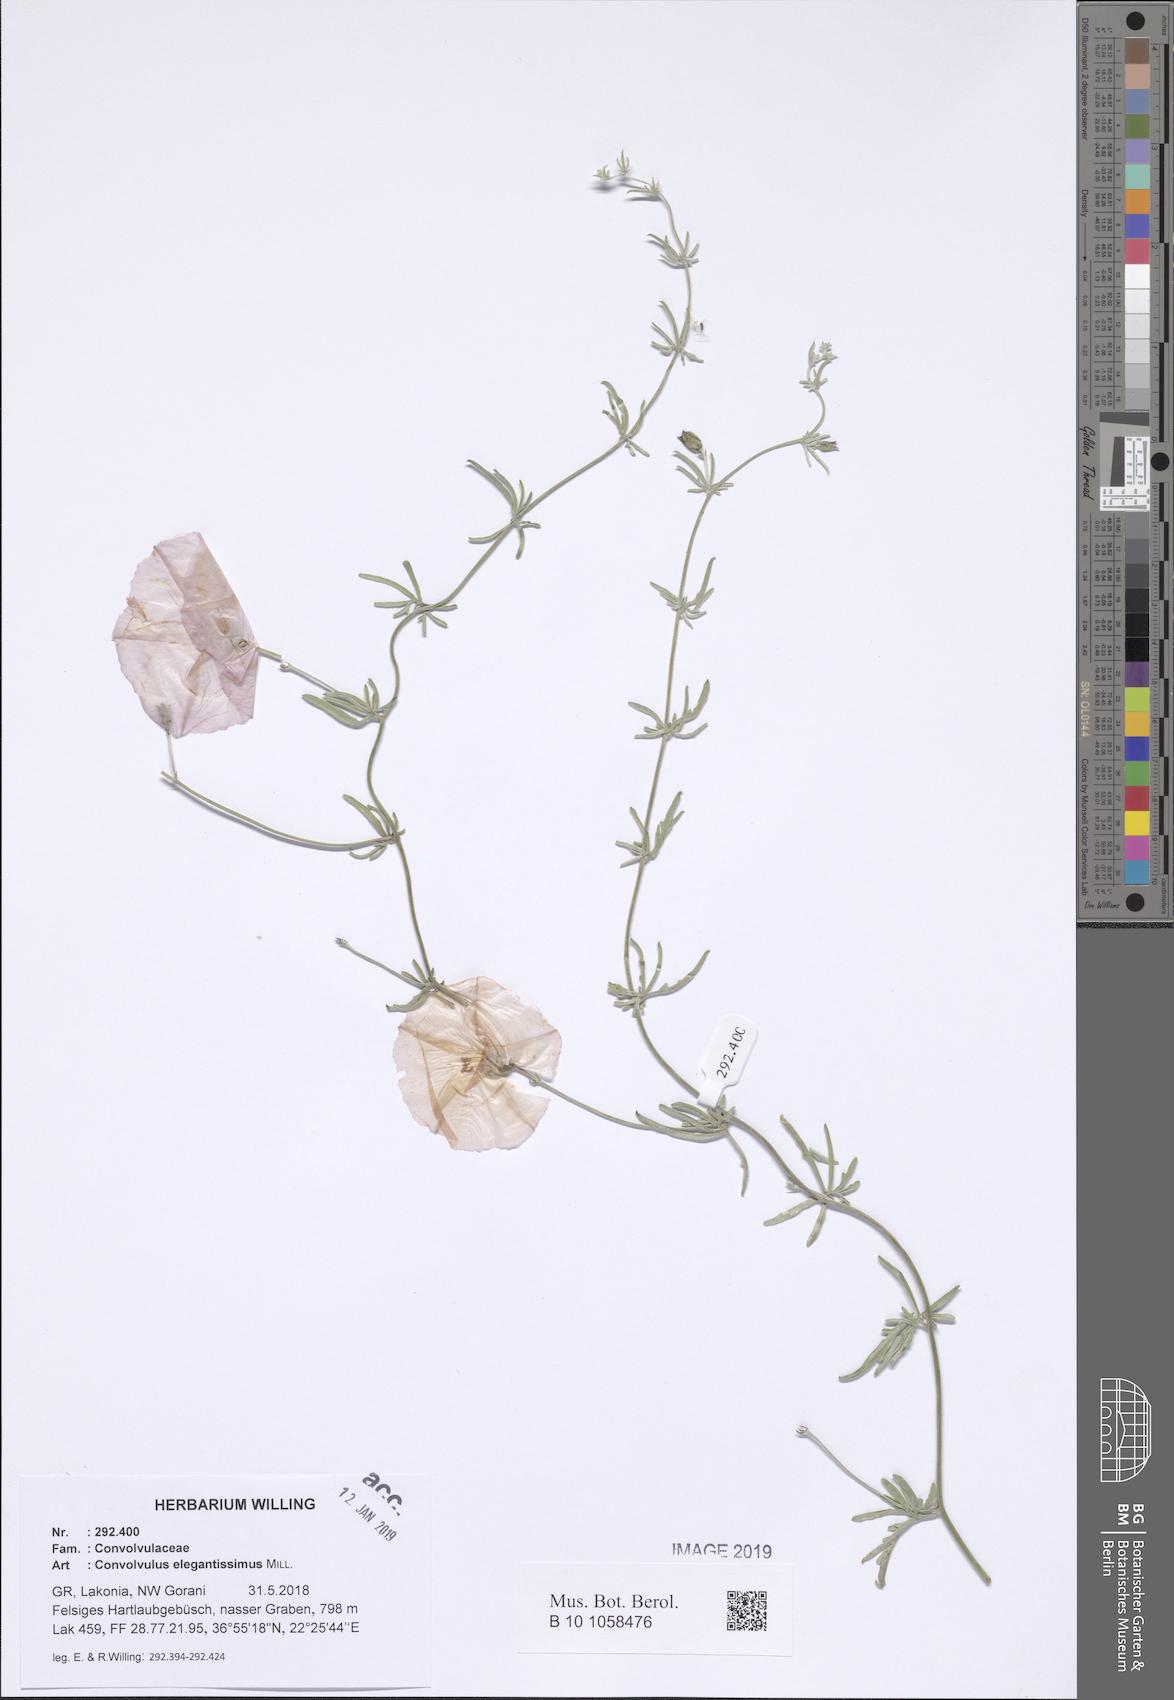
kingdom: Plantae
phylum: Tracheophyta
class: Magnoliopsida
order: Solanales
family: Convolvulaceae
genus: Convolvulus
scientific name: Convolvulus elegantissimus
